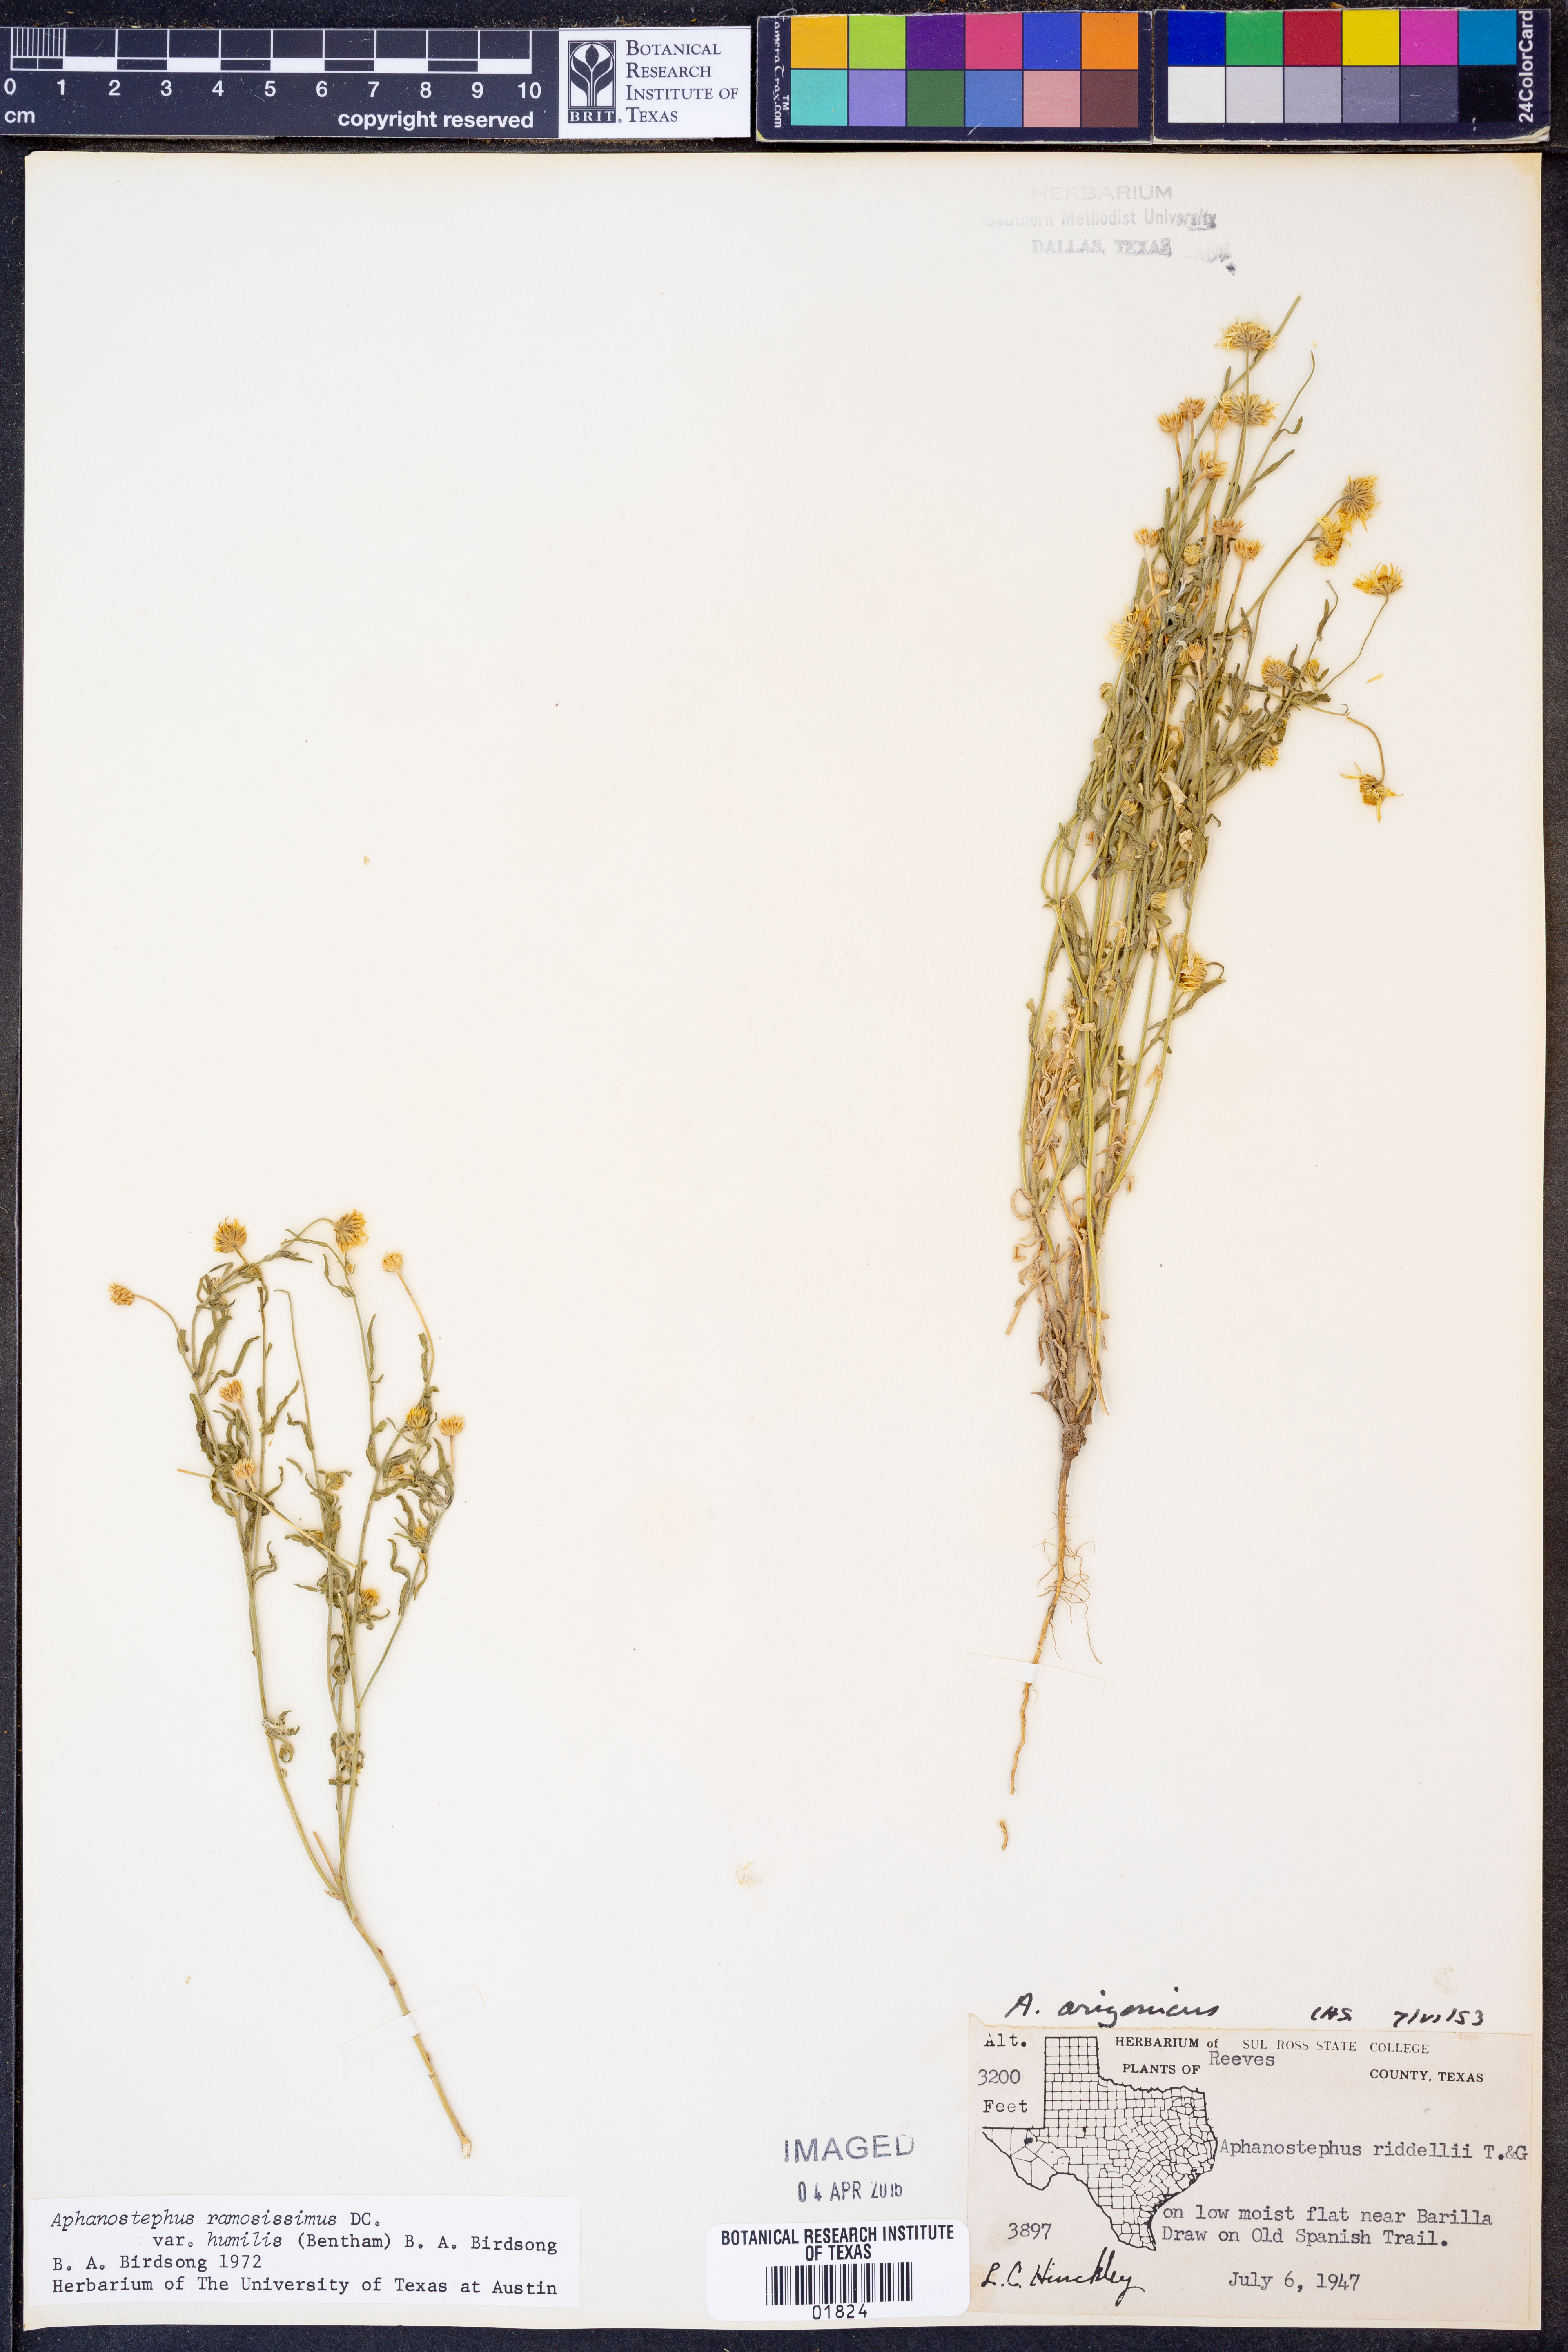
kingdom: Plantae
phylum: Tracheophyta
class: Magnoliopsida
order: Asterales
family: Asteraceae
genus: Aphanostephus
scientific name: Aphanostephus ramosissimus
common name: Plains lazy daisy
